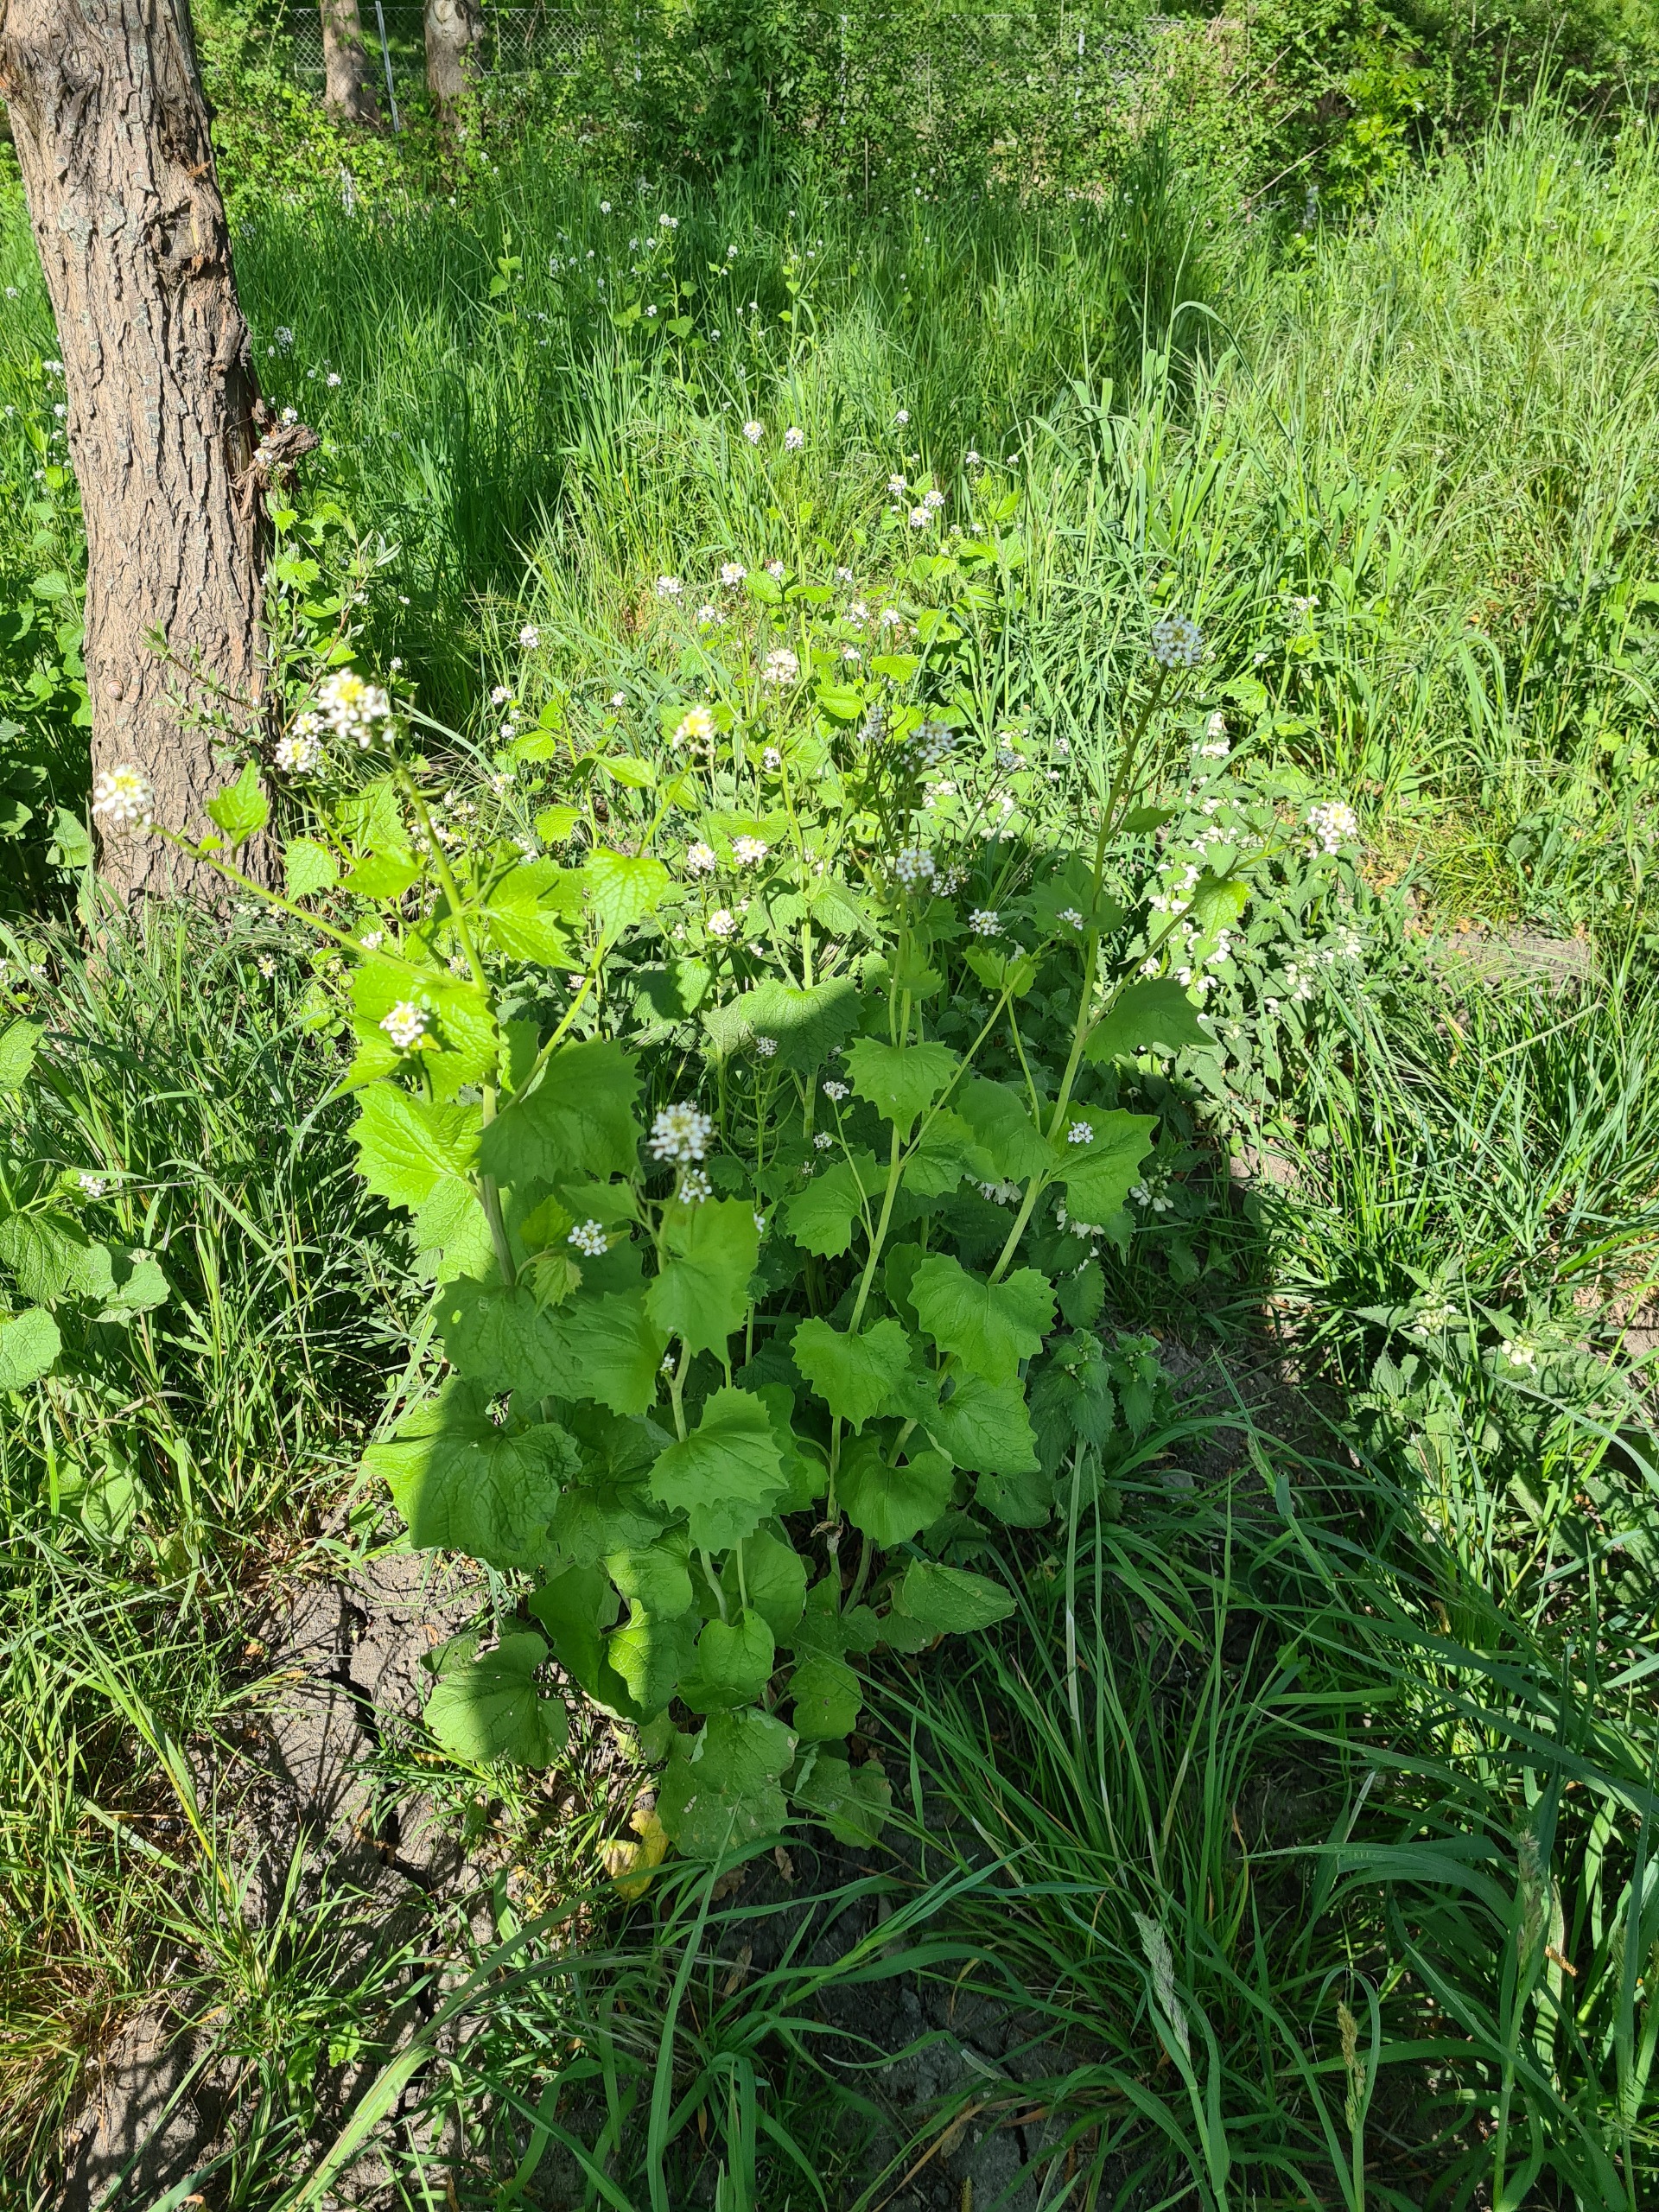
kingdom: Plantae
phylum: Tracheophyta
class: Magnoliopsida
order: Brassicales
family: Brassicaceae
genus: Alliaria
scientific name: Alliaria petiolata
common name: Løgkarse
